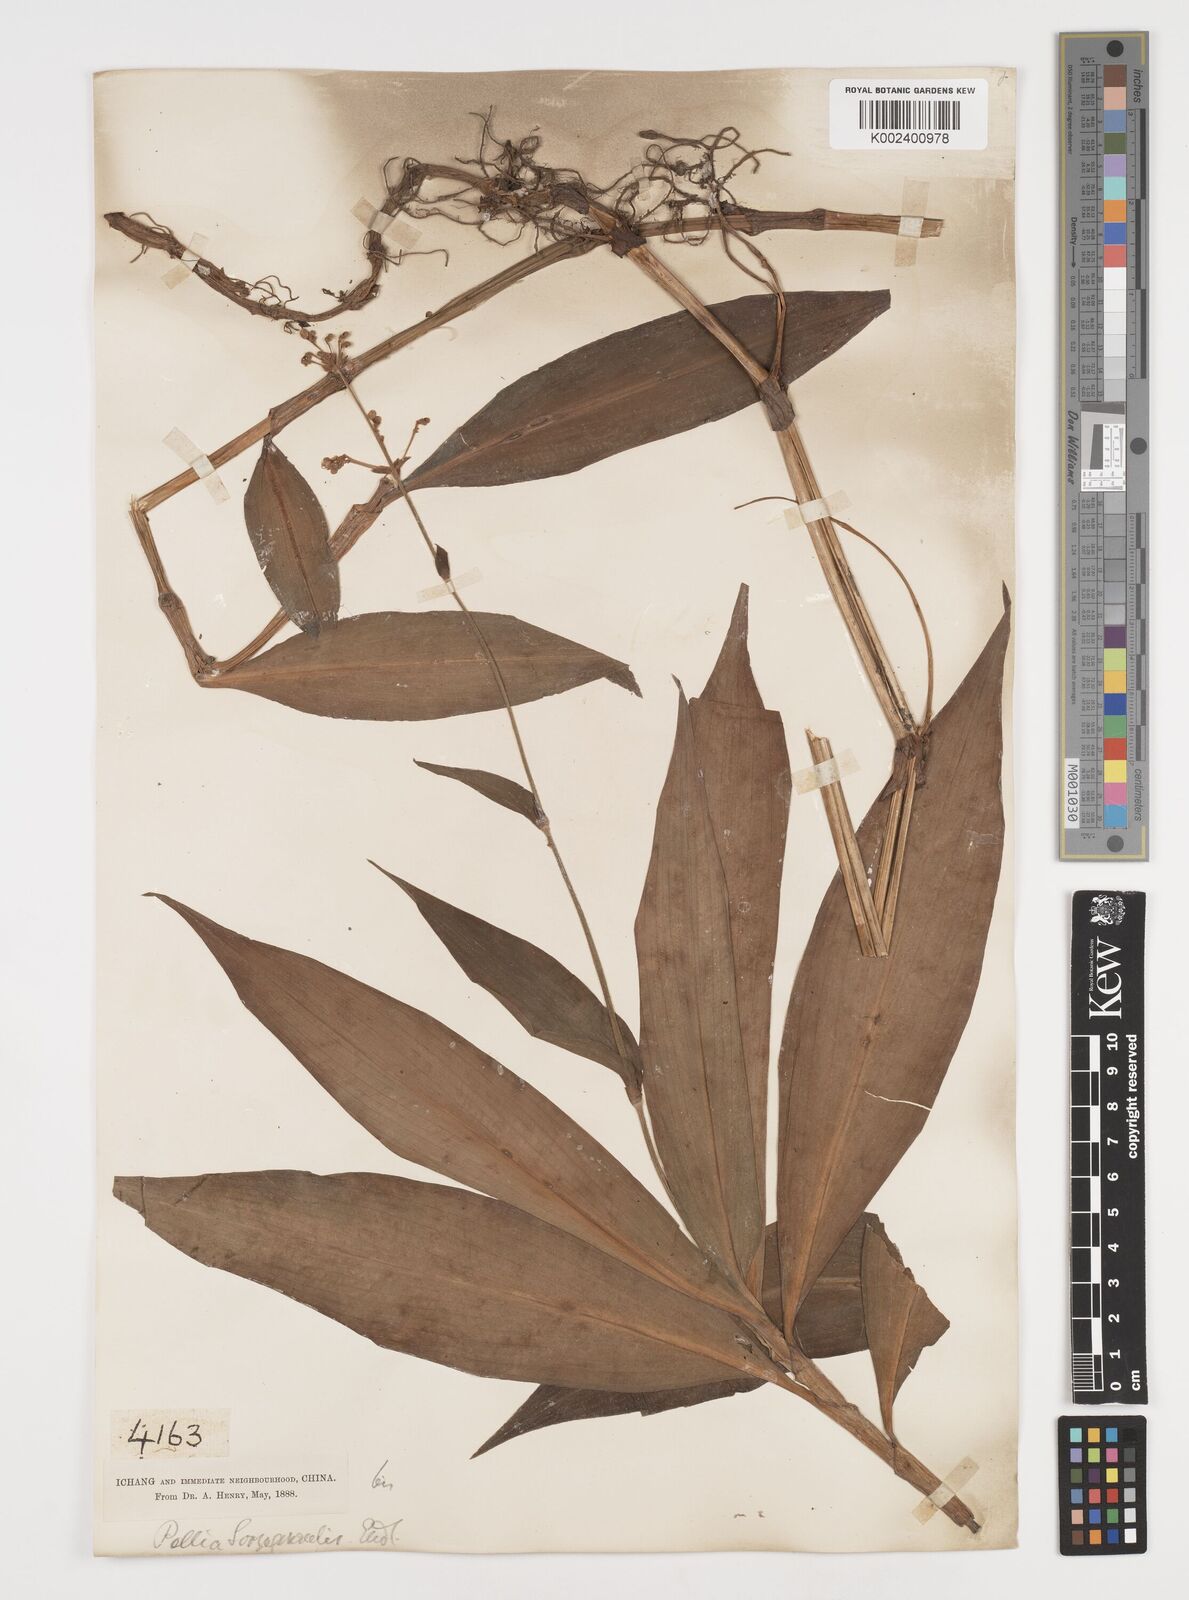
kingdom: Plantae
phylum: Tracheophyta
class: Liliopsida
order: Commelinales
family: Commelinaceae
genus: Pollia
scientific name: Pollia secundiflora
